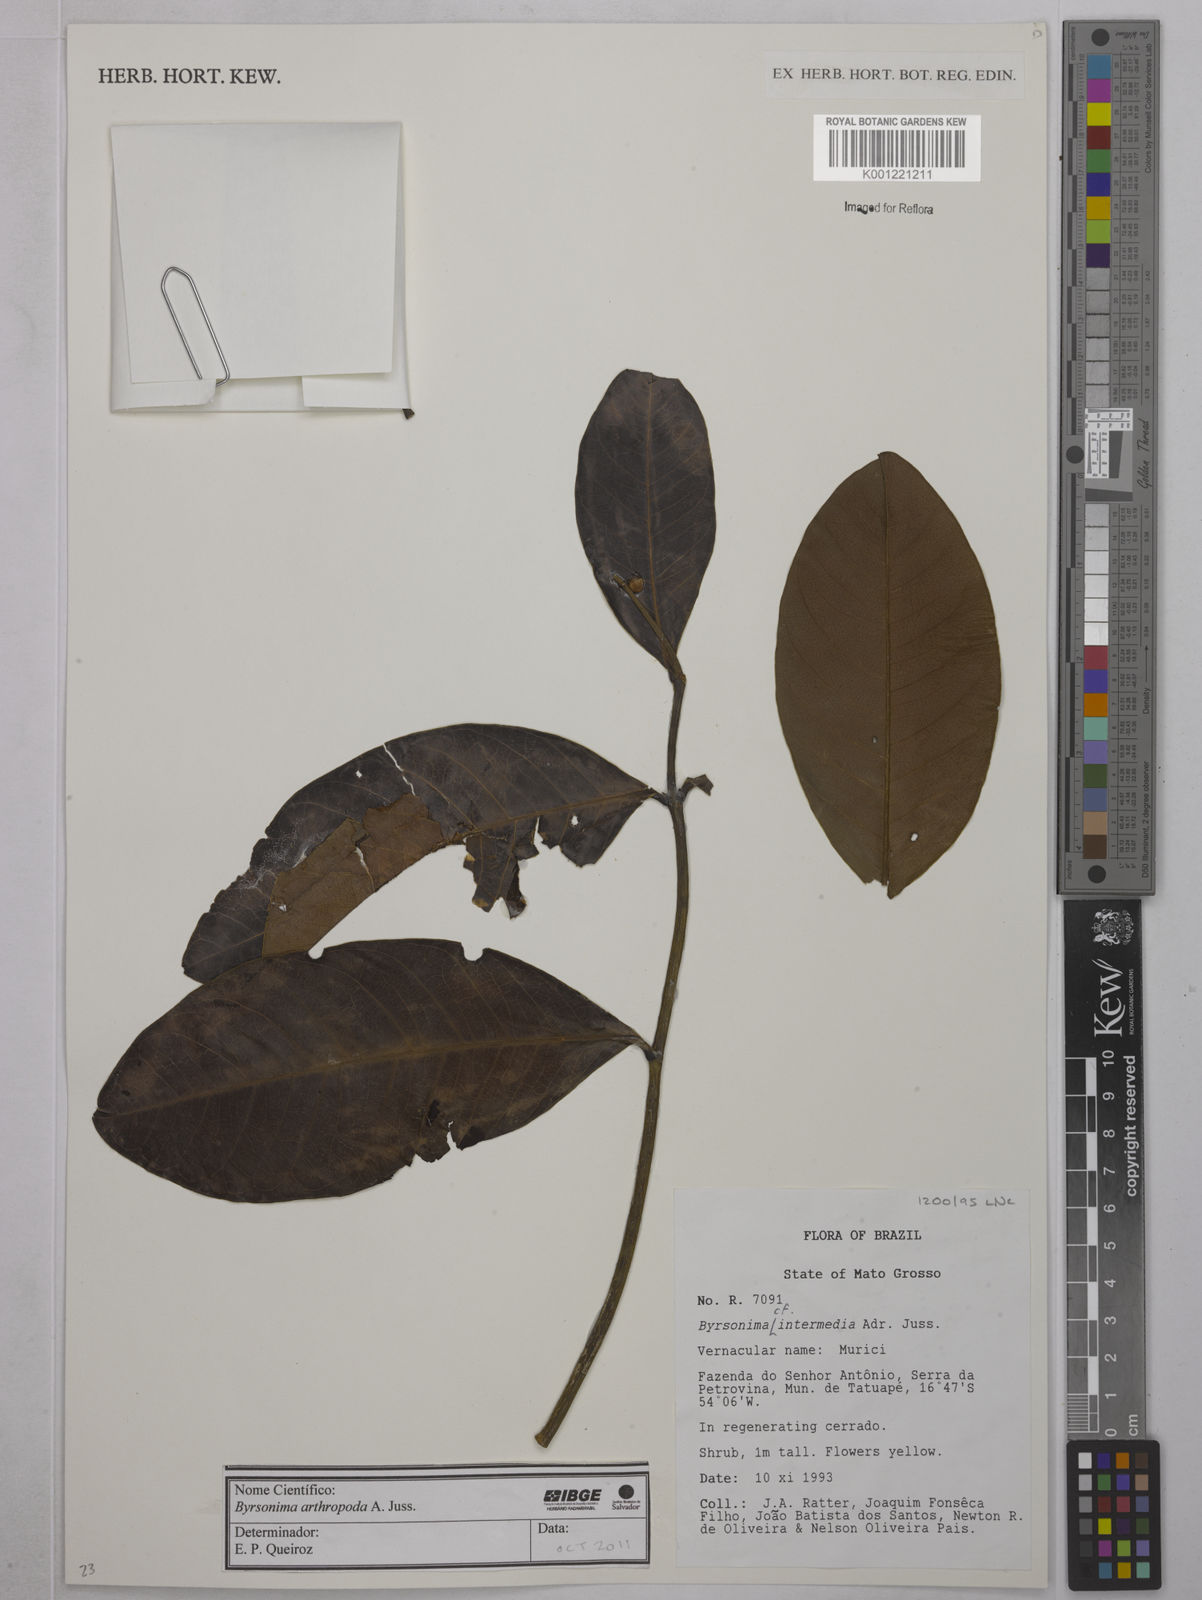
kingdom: Plantae
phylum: Tracheophyta
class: Magnoliopsida
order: Malpighiales
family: Malpighiaceae
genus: Byrsonima
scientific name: Byrsonima arthropoda
